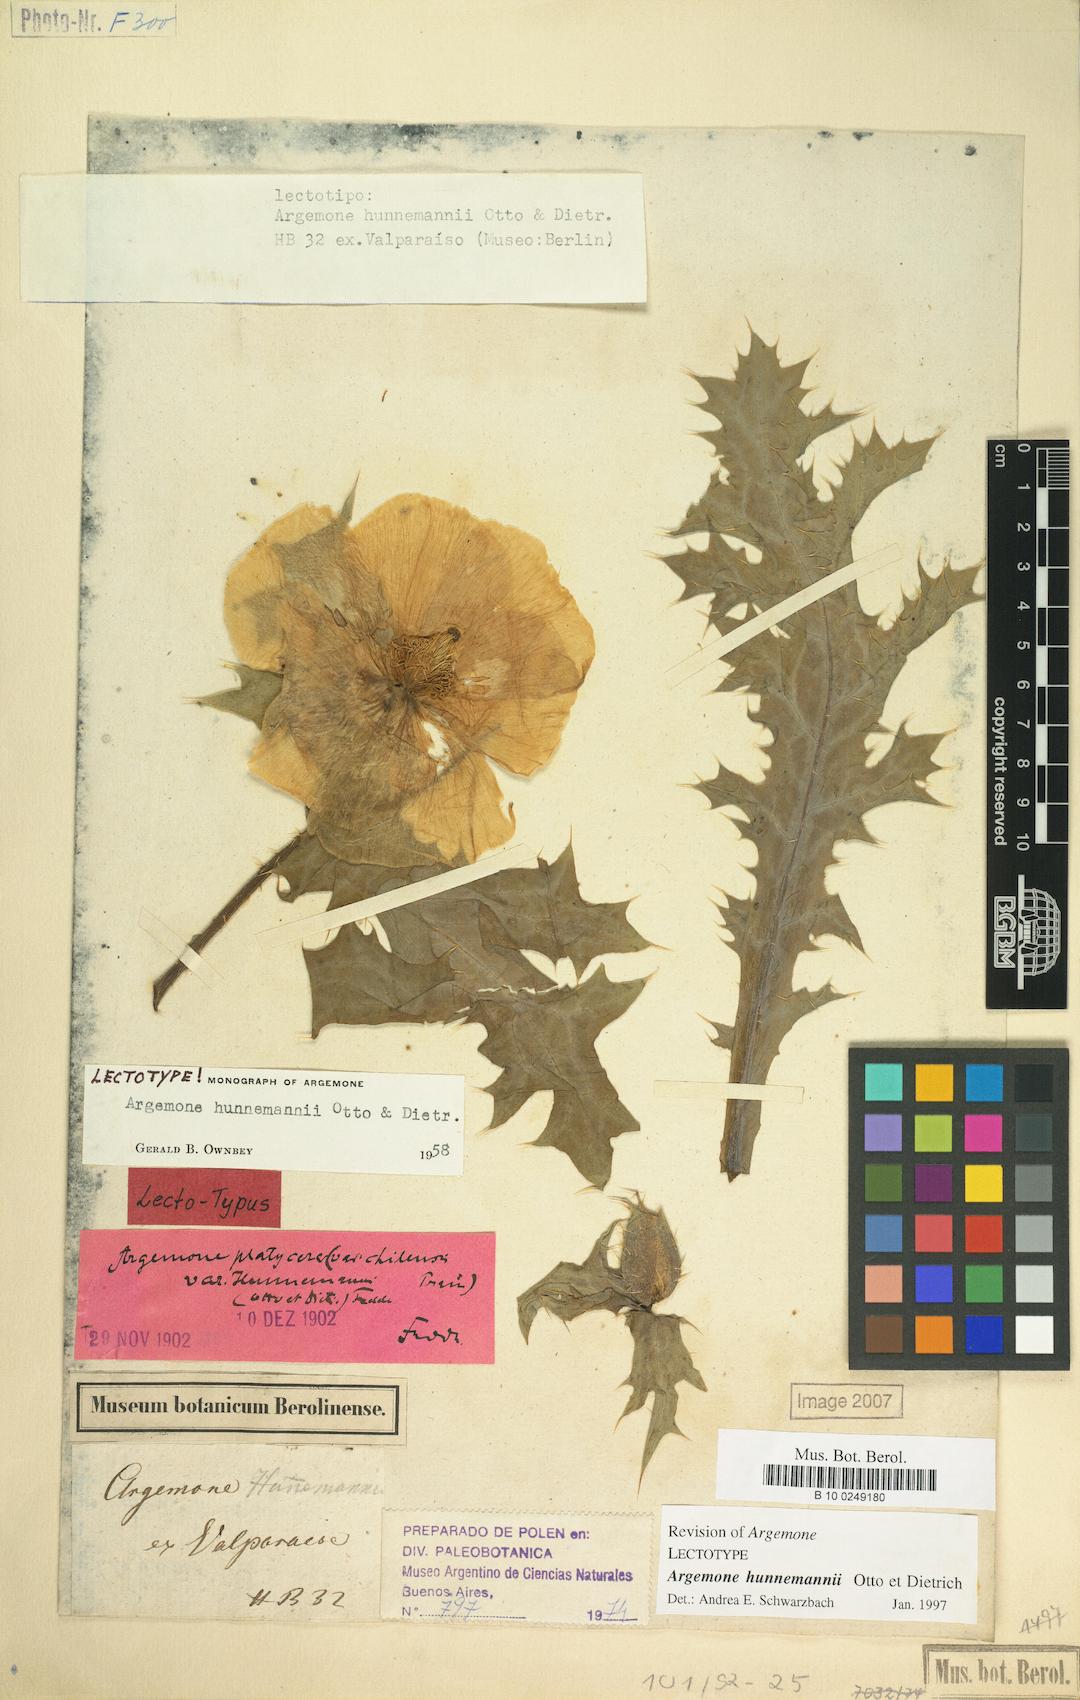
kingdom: Plantae
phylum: Tracheophyta
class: Magnoliopsida
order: Ranunculales
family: Papaveraceae
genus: Argemone
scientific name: Argemone hunnemannii
